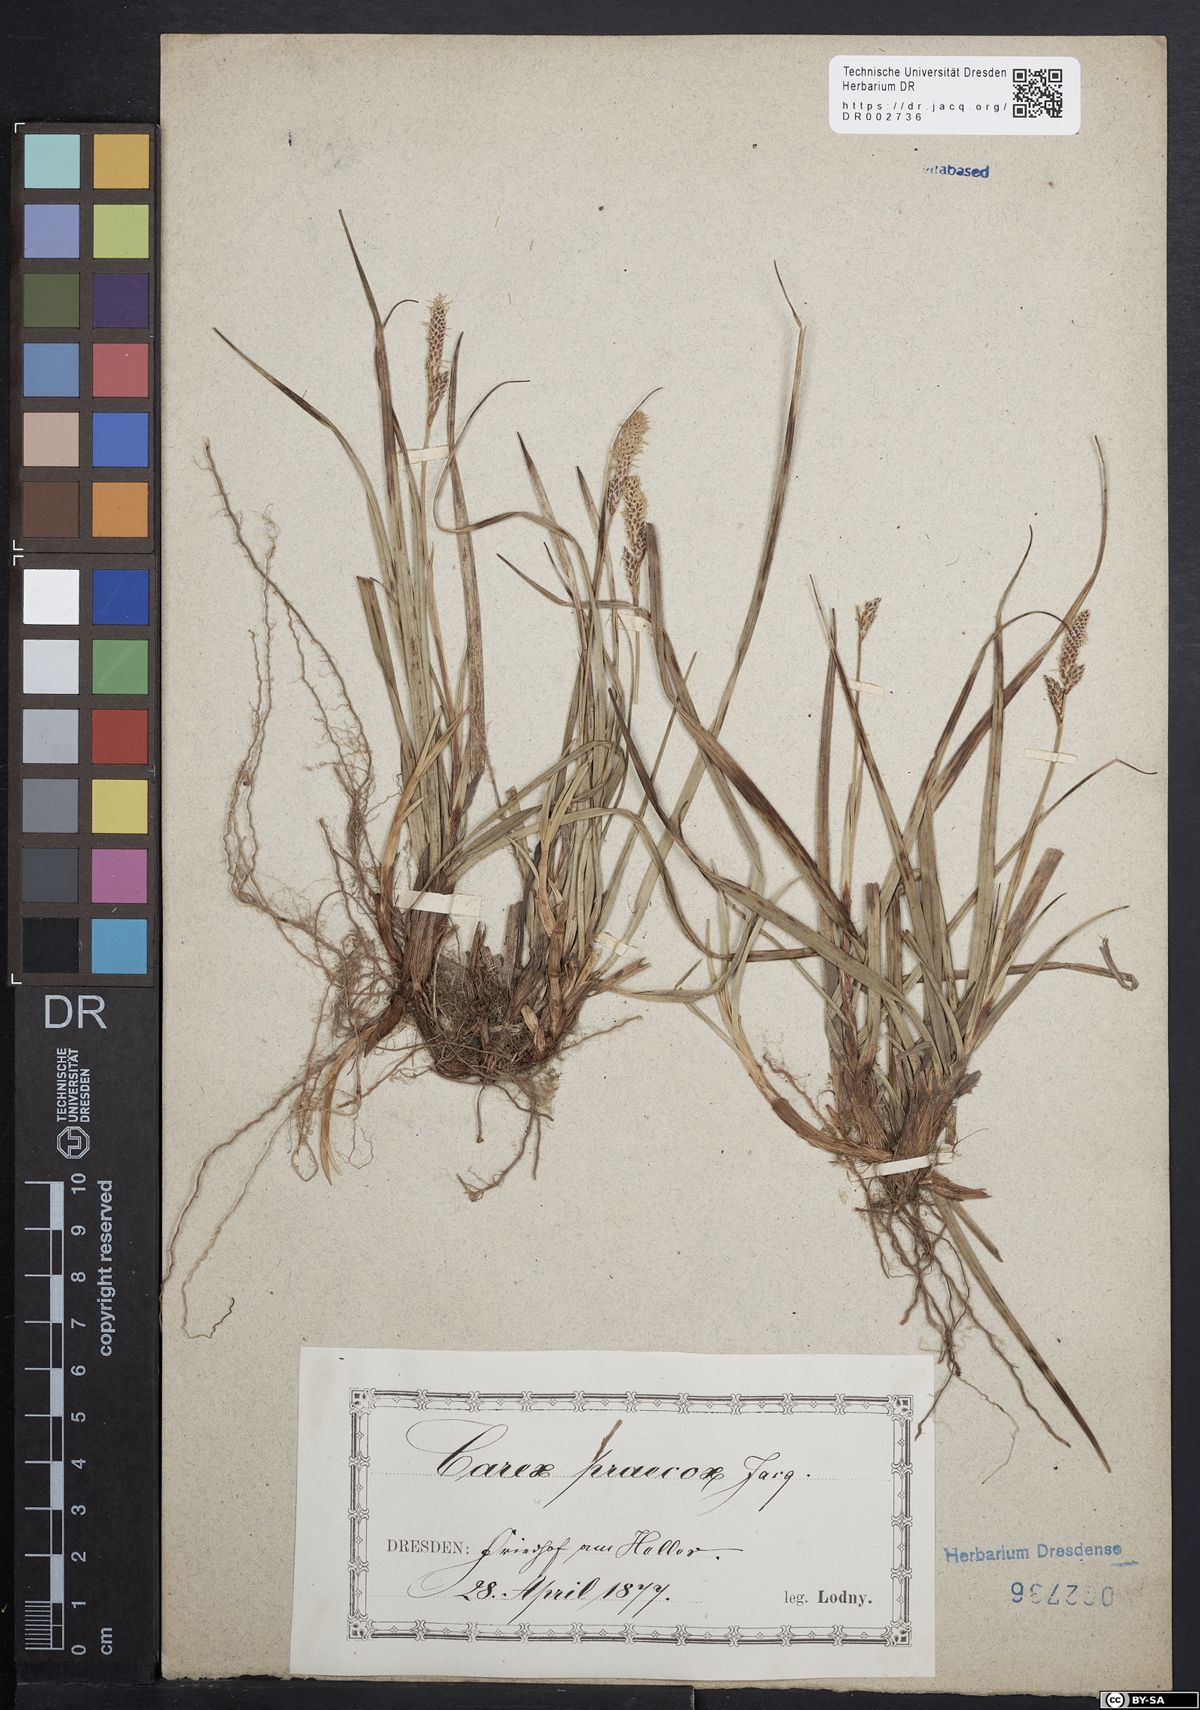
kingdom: Plantae
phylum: Tracheophyta
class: Liliopsida
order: Poales
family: Cyperaceae
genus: Carex
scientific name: Carex caryophyllea
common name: Spring sedge
